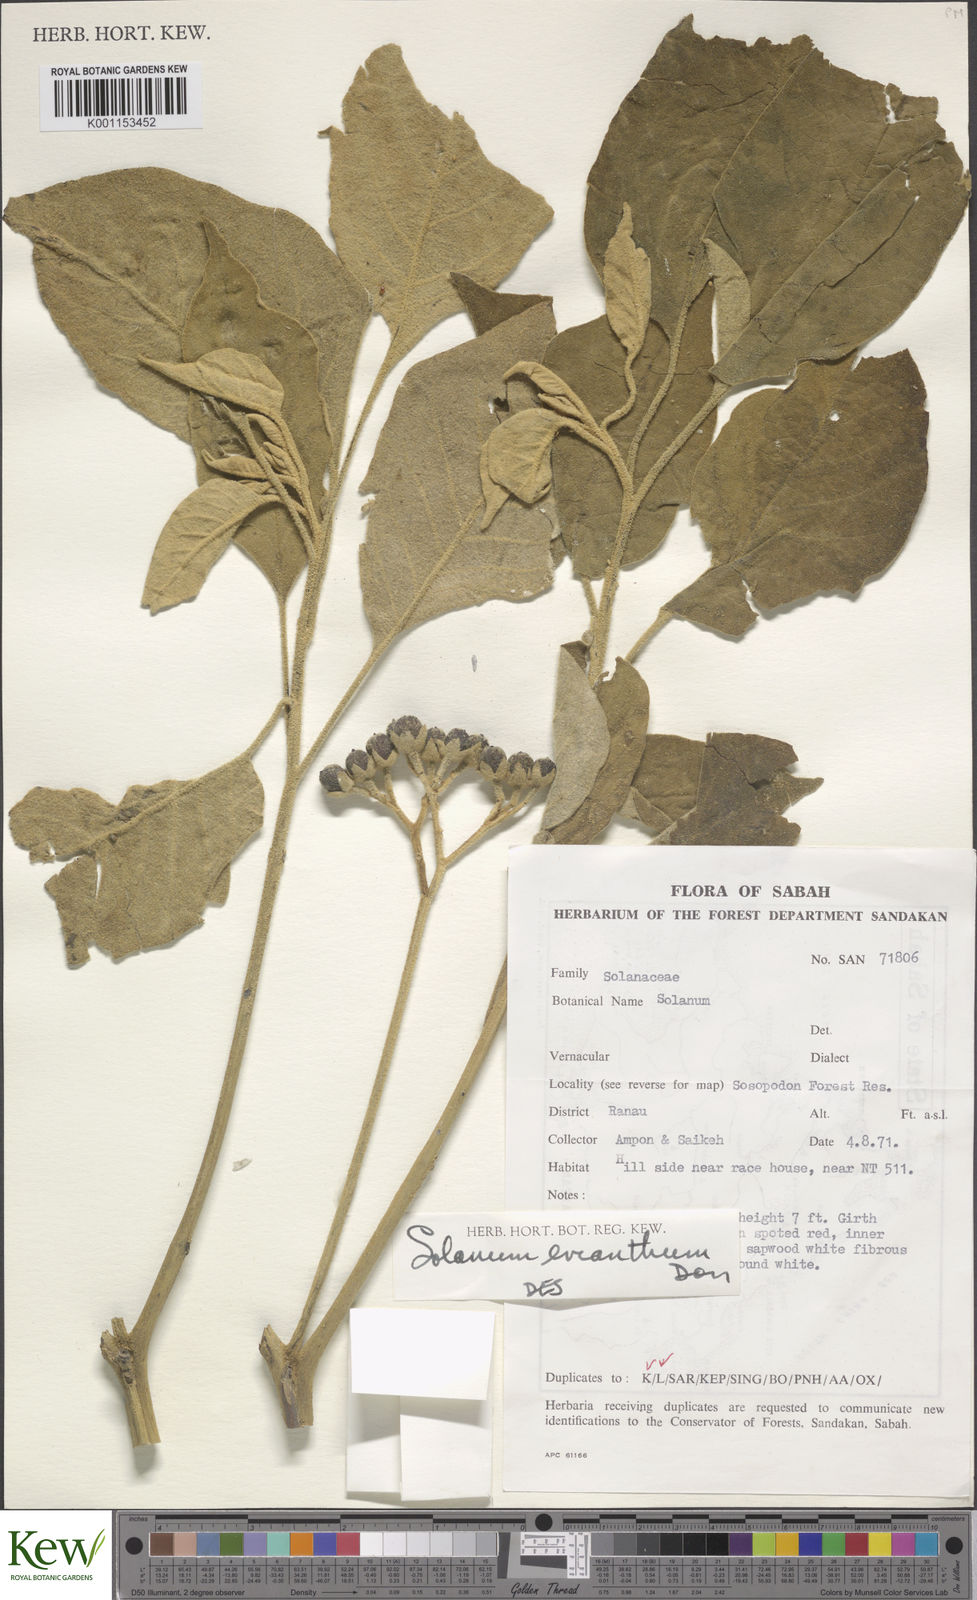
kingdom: Plantae
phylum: Tracheophyta
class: Magnoliopsida
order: Solanales
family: Solanaceae
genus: Solanum
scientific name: Solanum erianthum
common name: Tobacco-tree
